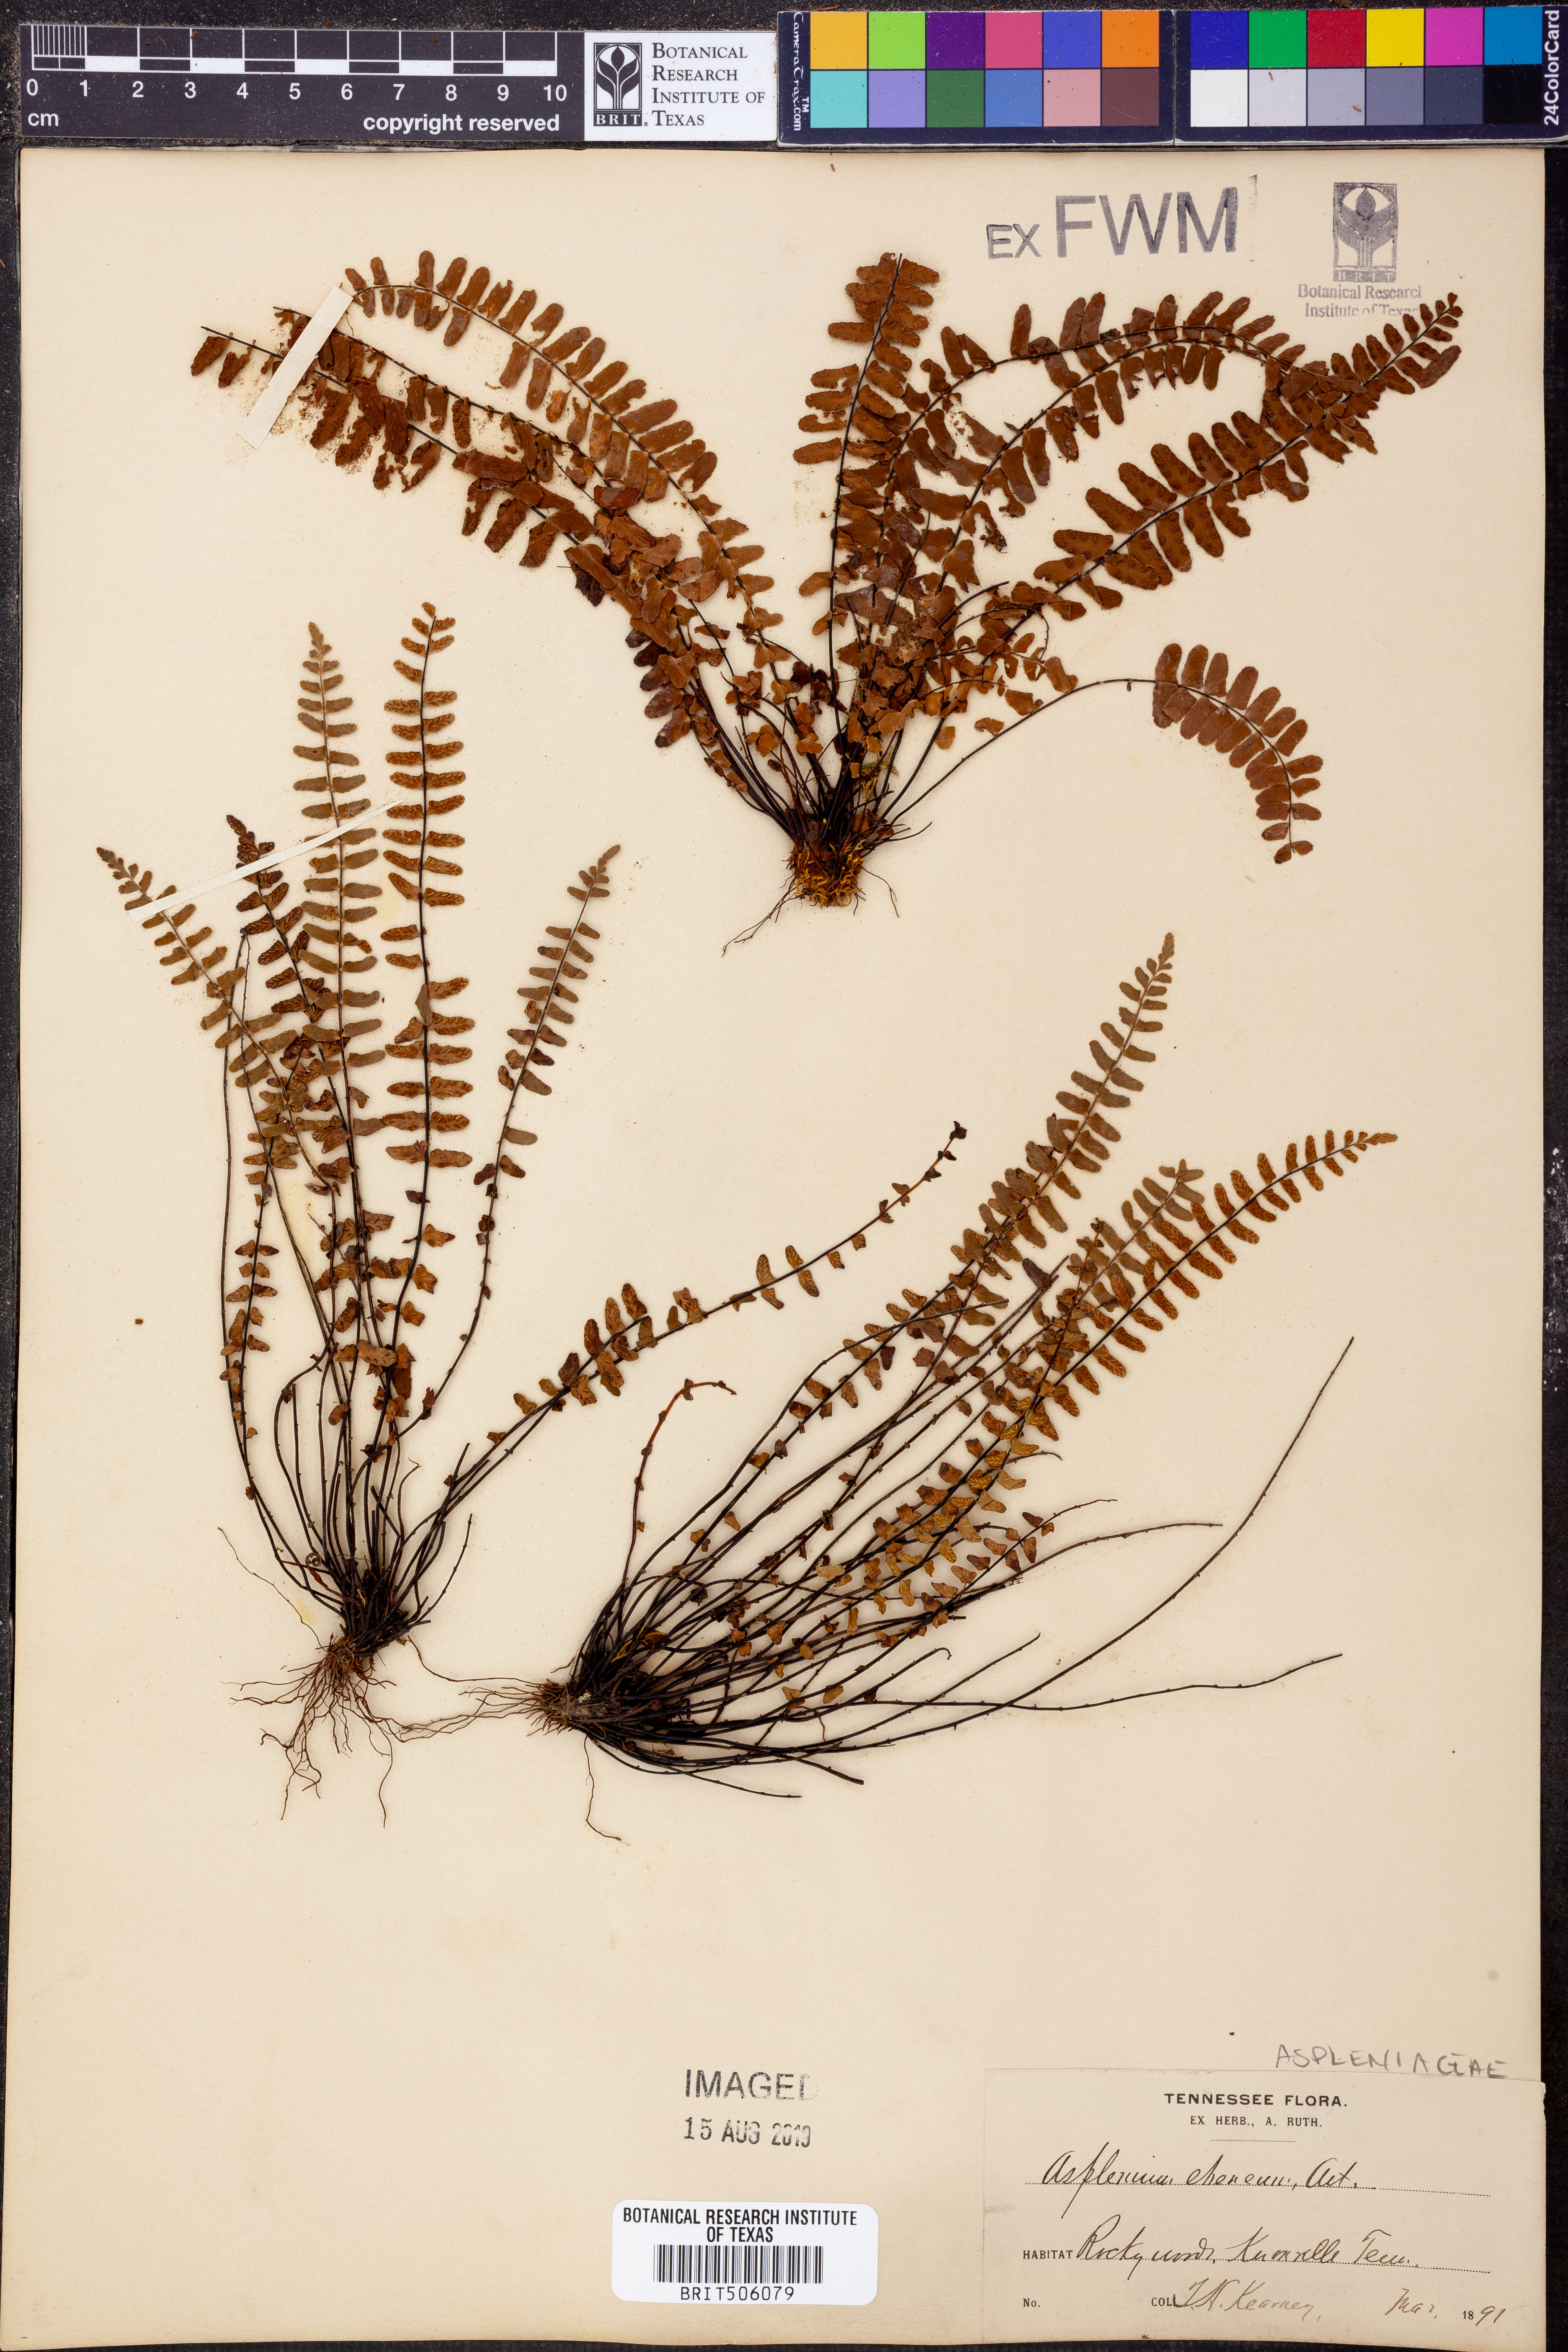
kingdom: Plantae
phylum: Tracheophyta
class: Polypodiopsida
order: Polypodiales
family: Aspleniaceae
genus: Asplenium
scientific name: Asplenium ebeneum
